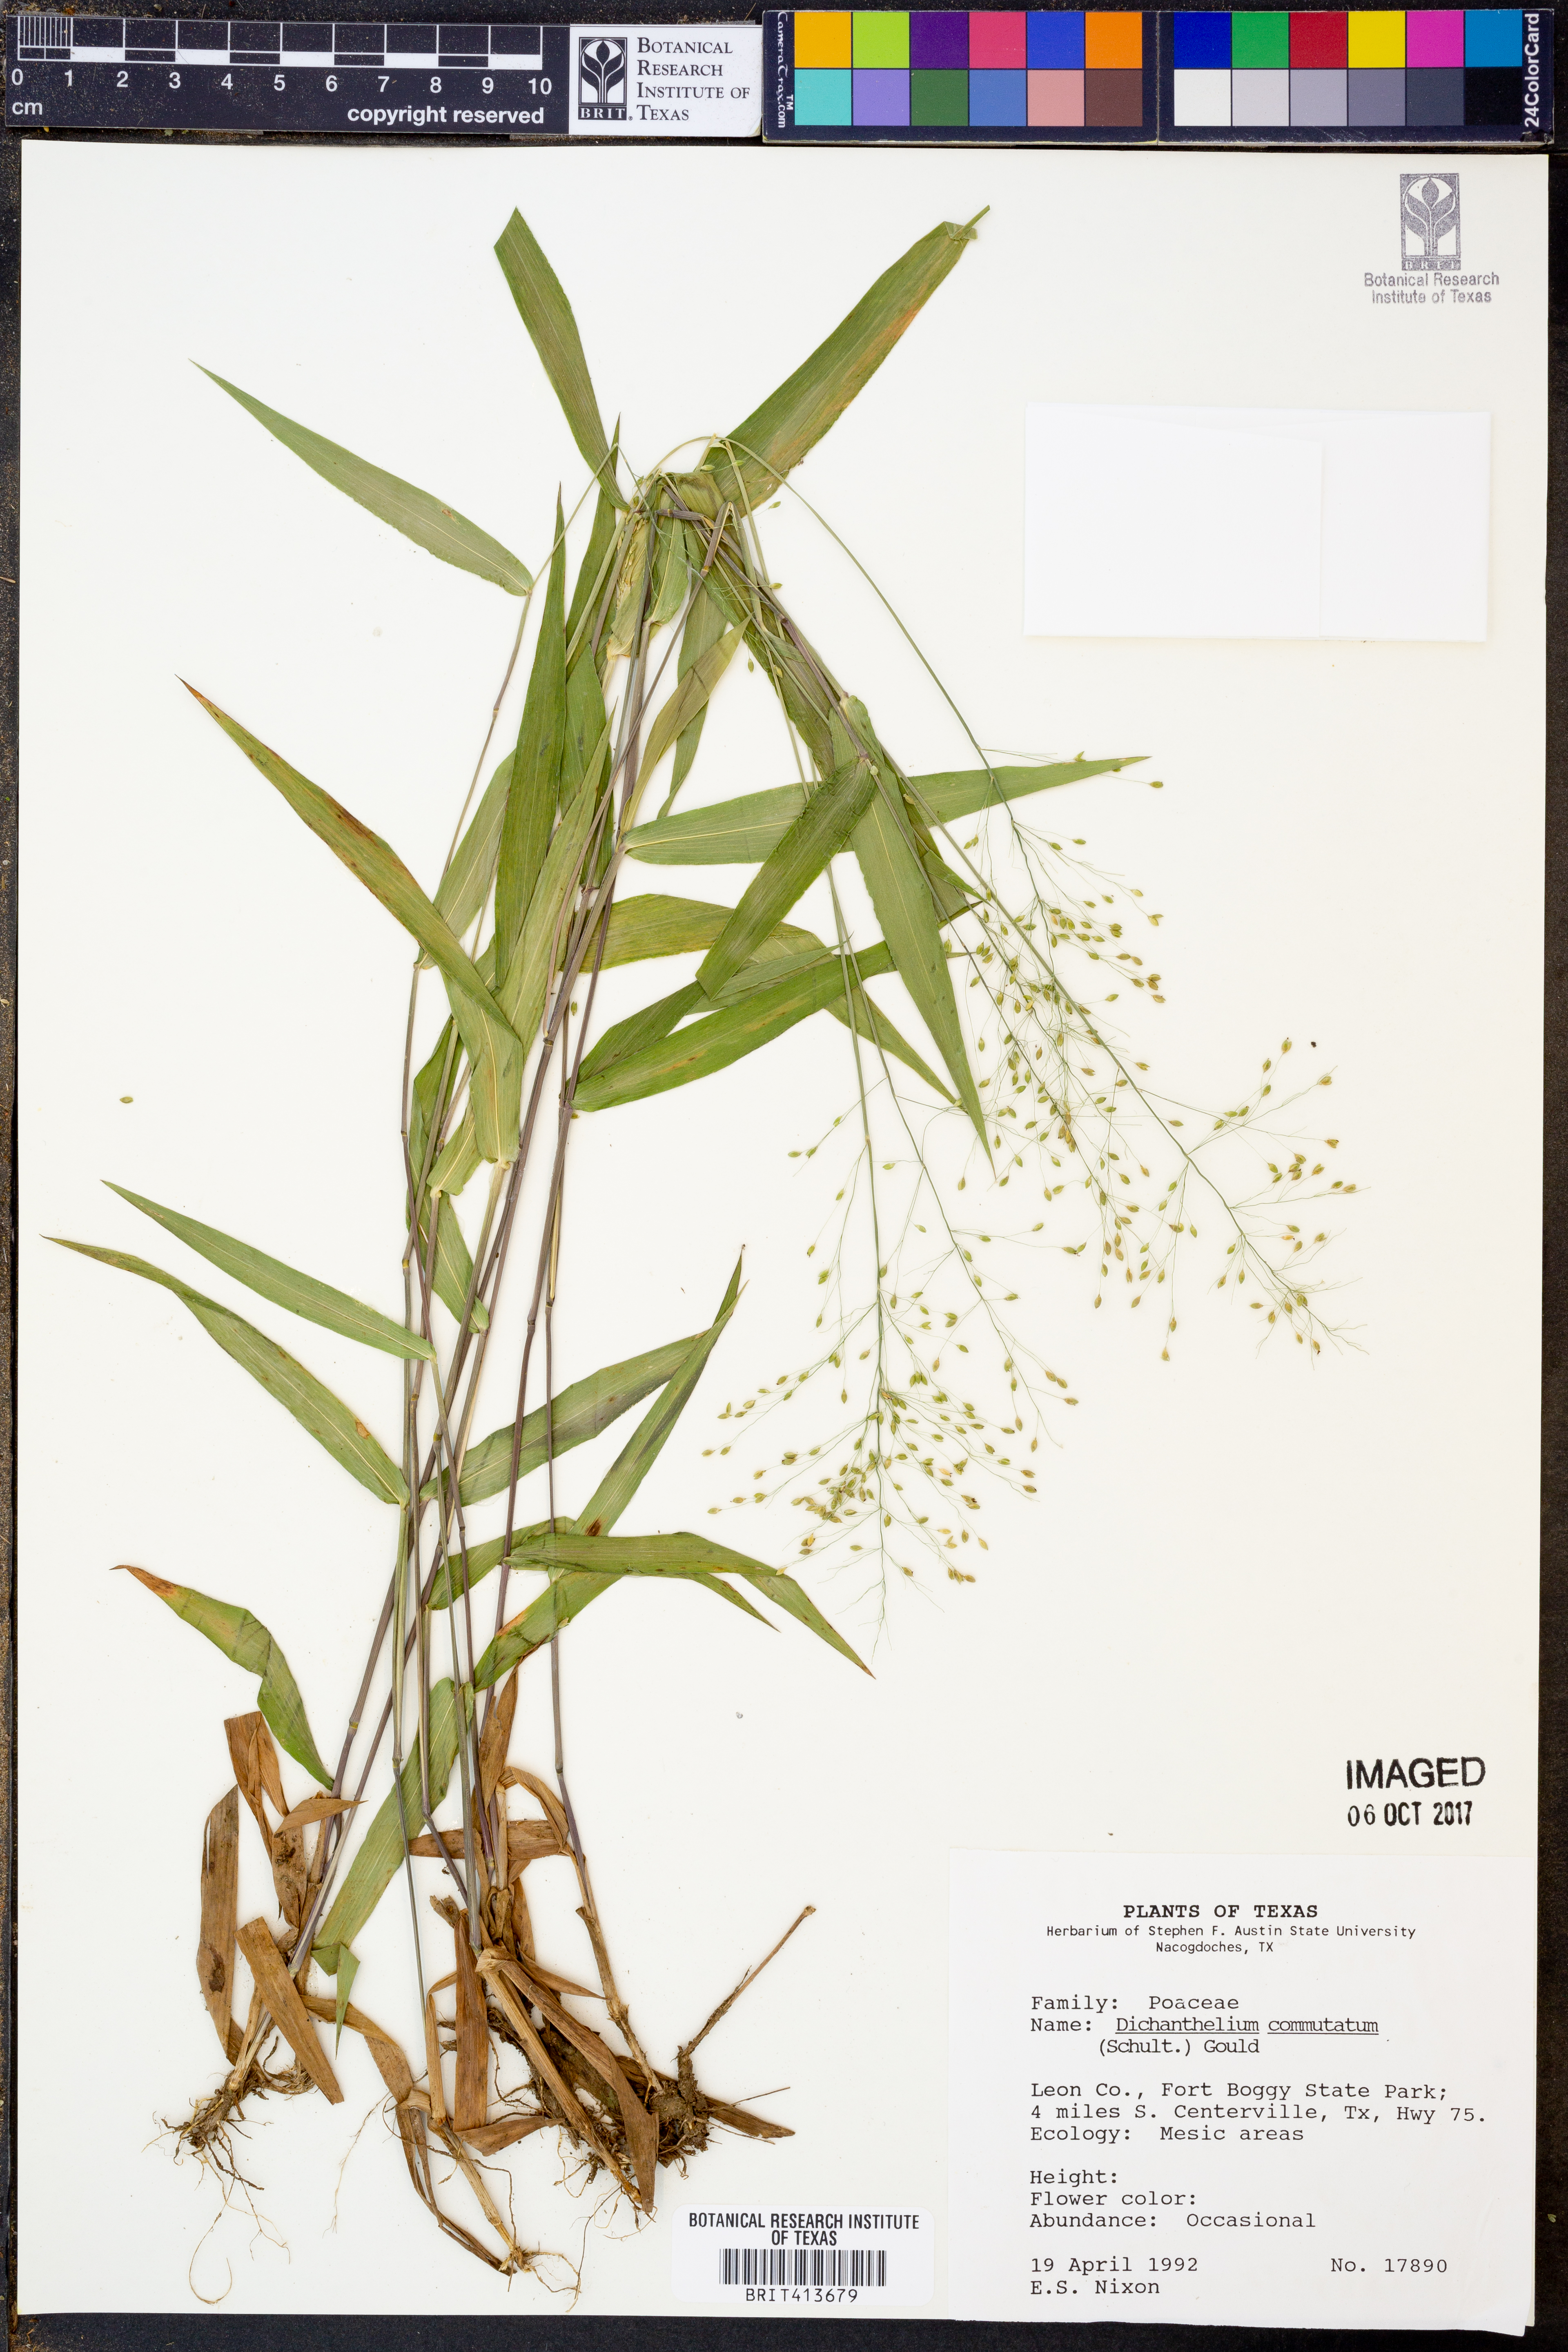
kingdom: Plantae
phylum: Tracheophyta
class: Liliopsida
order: Poales
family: Poaceae
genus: Dichanthelium
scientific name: Dichanthelium commutatum
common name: Variable witchgrass
